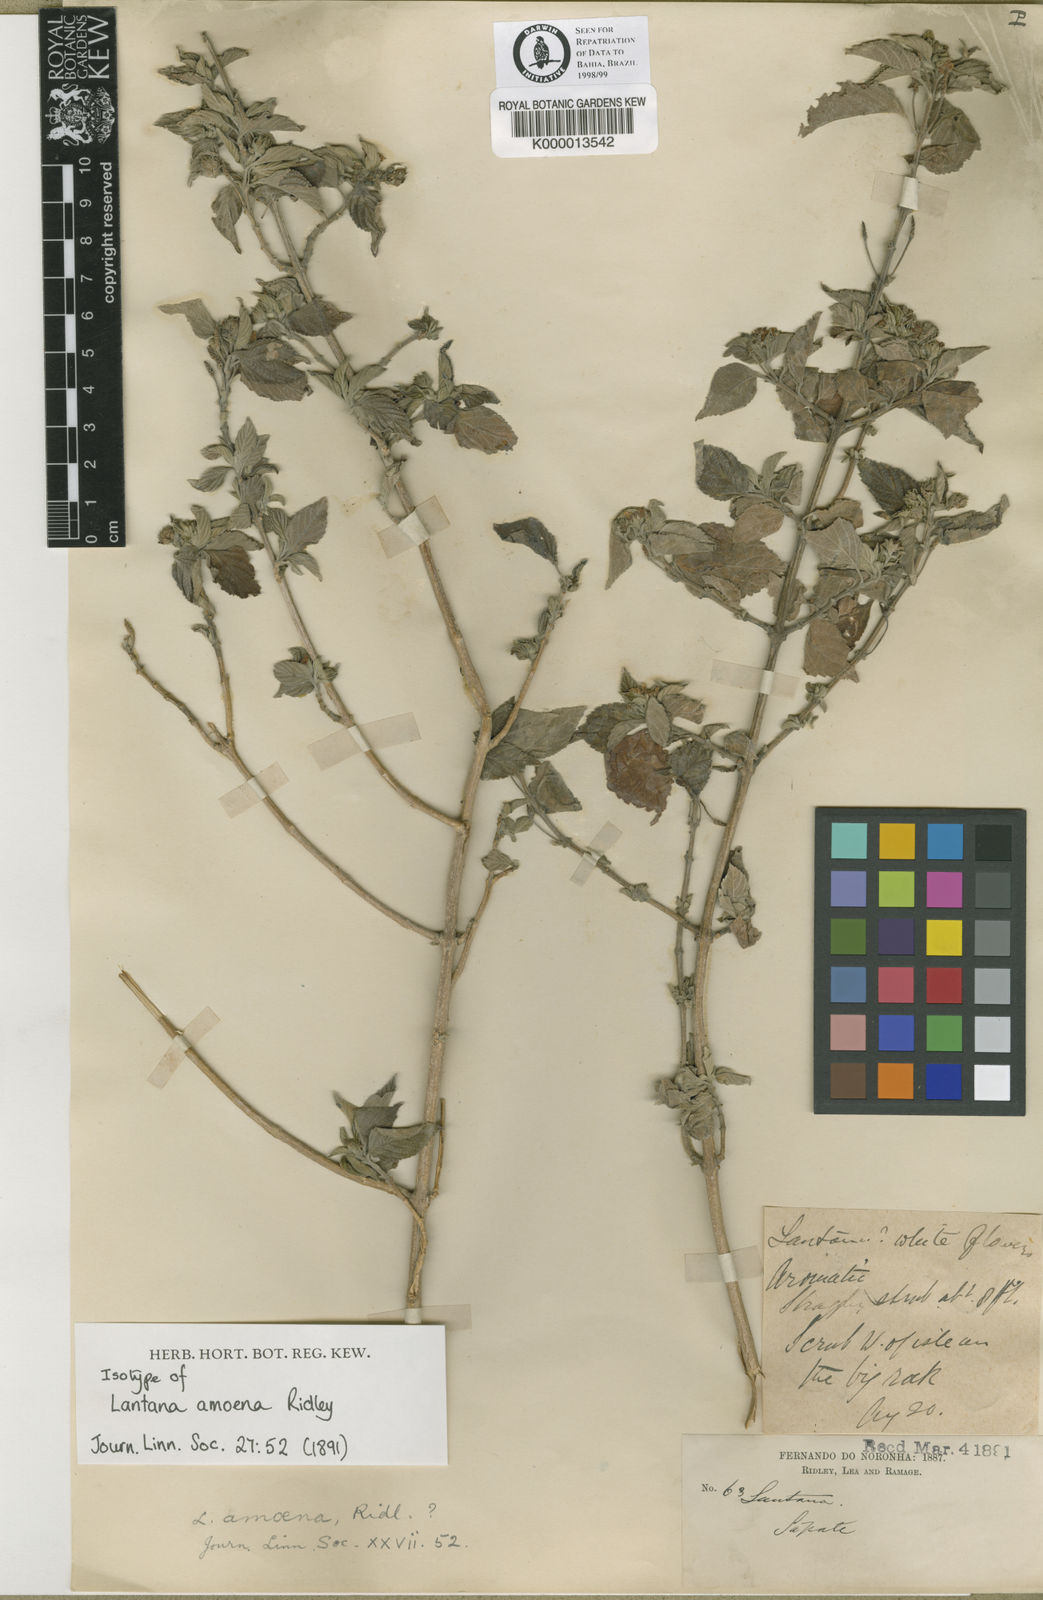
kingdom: Plantae
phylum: Tracheophyta
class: Magnoliopsida
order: Lamiales
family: Verbenaceae
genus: Lantana
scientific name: Lantana amoena
